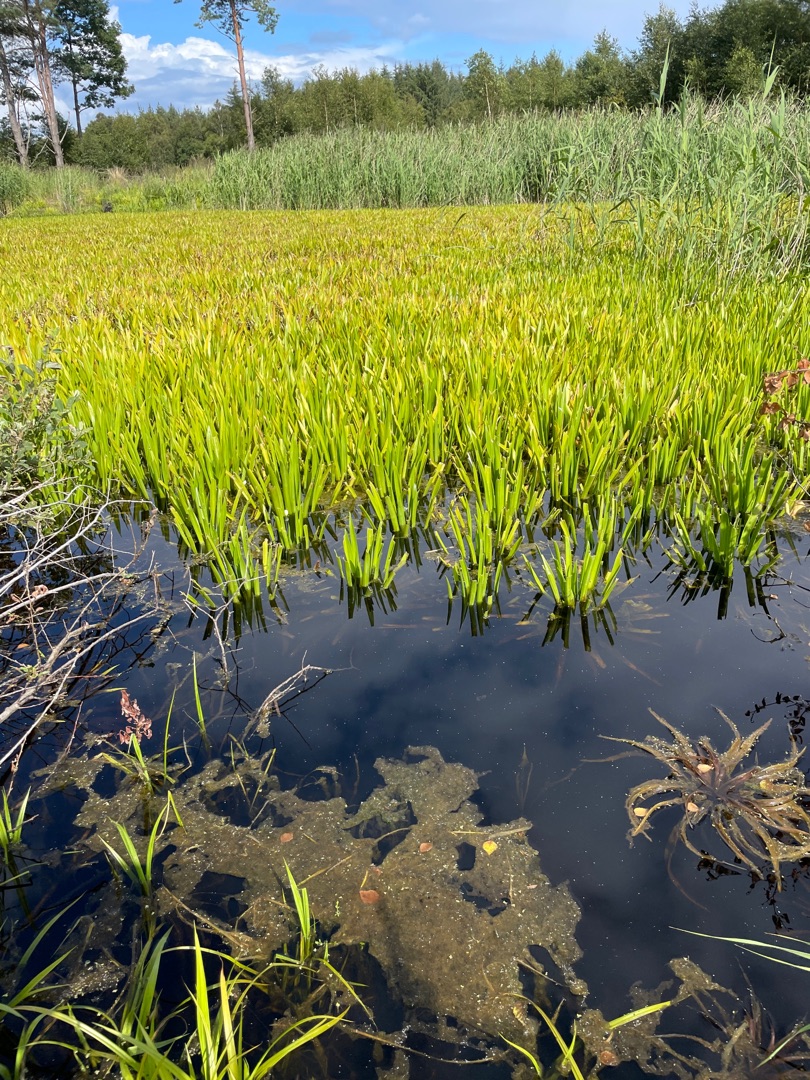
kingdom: Plantae
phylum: Tracheophyta
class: Liliopsida
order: Alismatales
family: Hydrocharitaceae
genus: Stratiotes
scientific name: Stratiotes aloides
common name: Krebseklo
